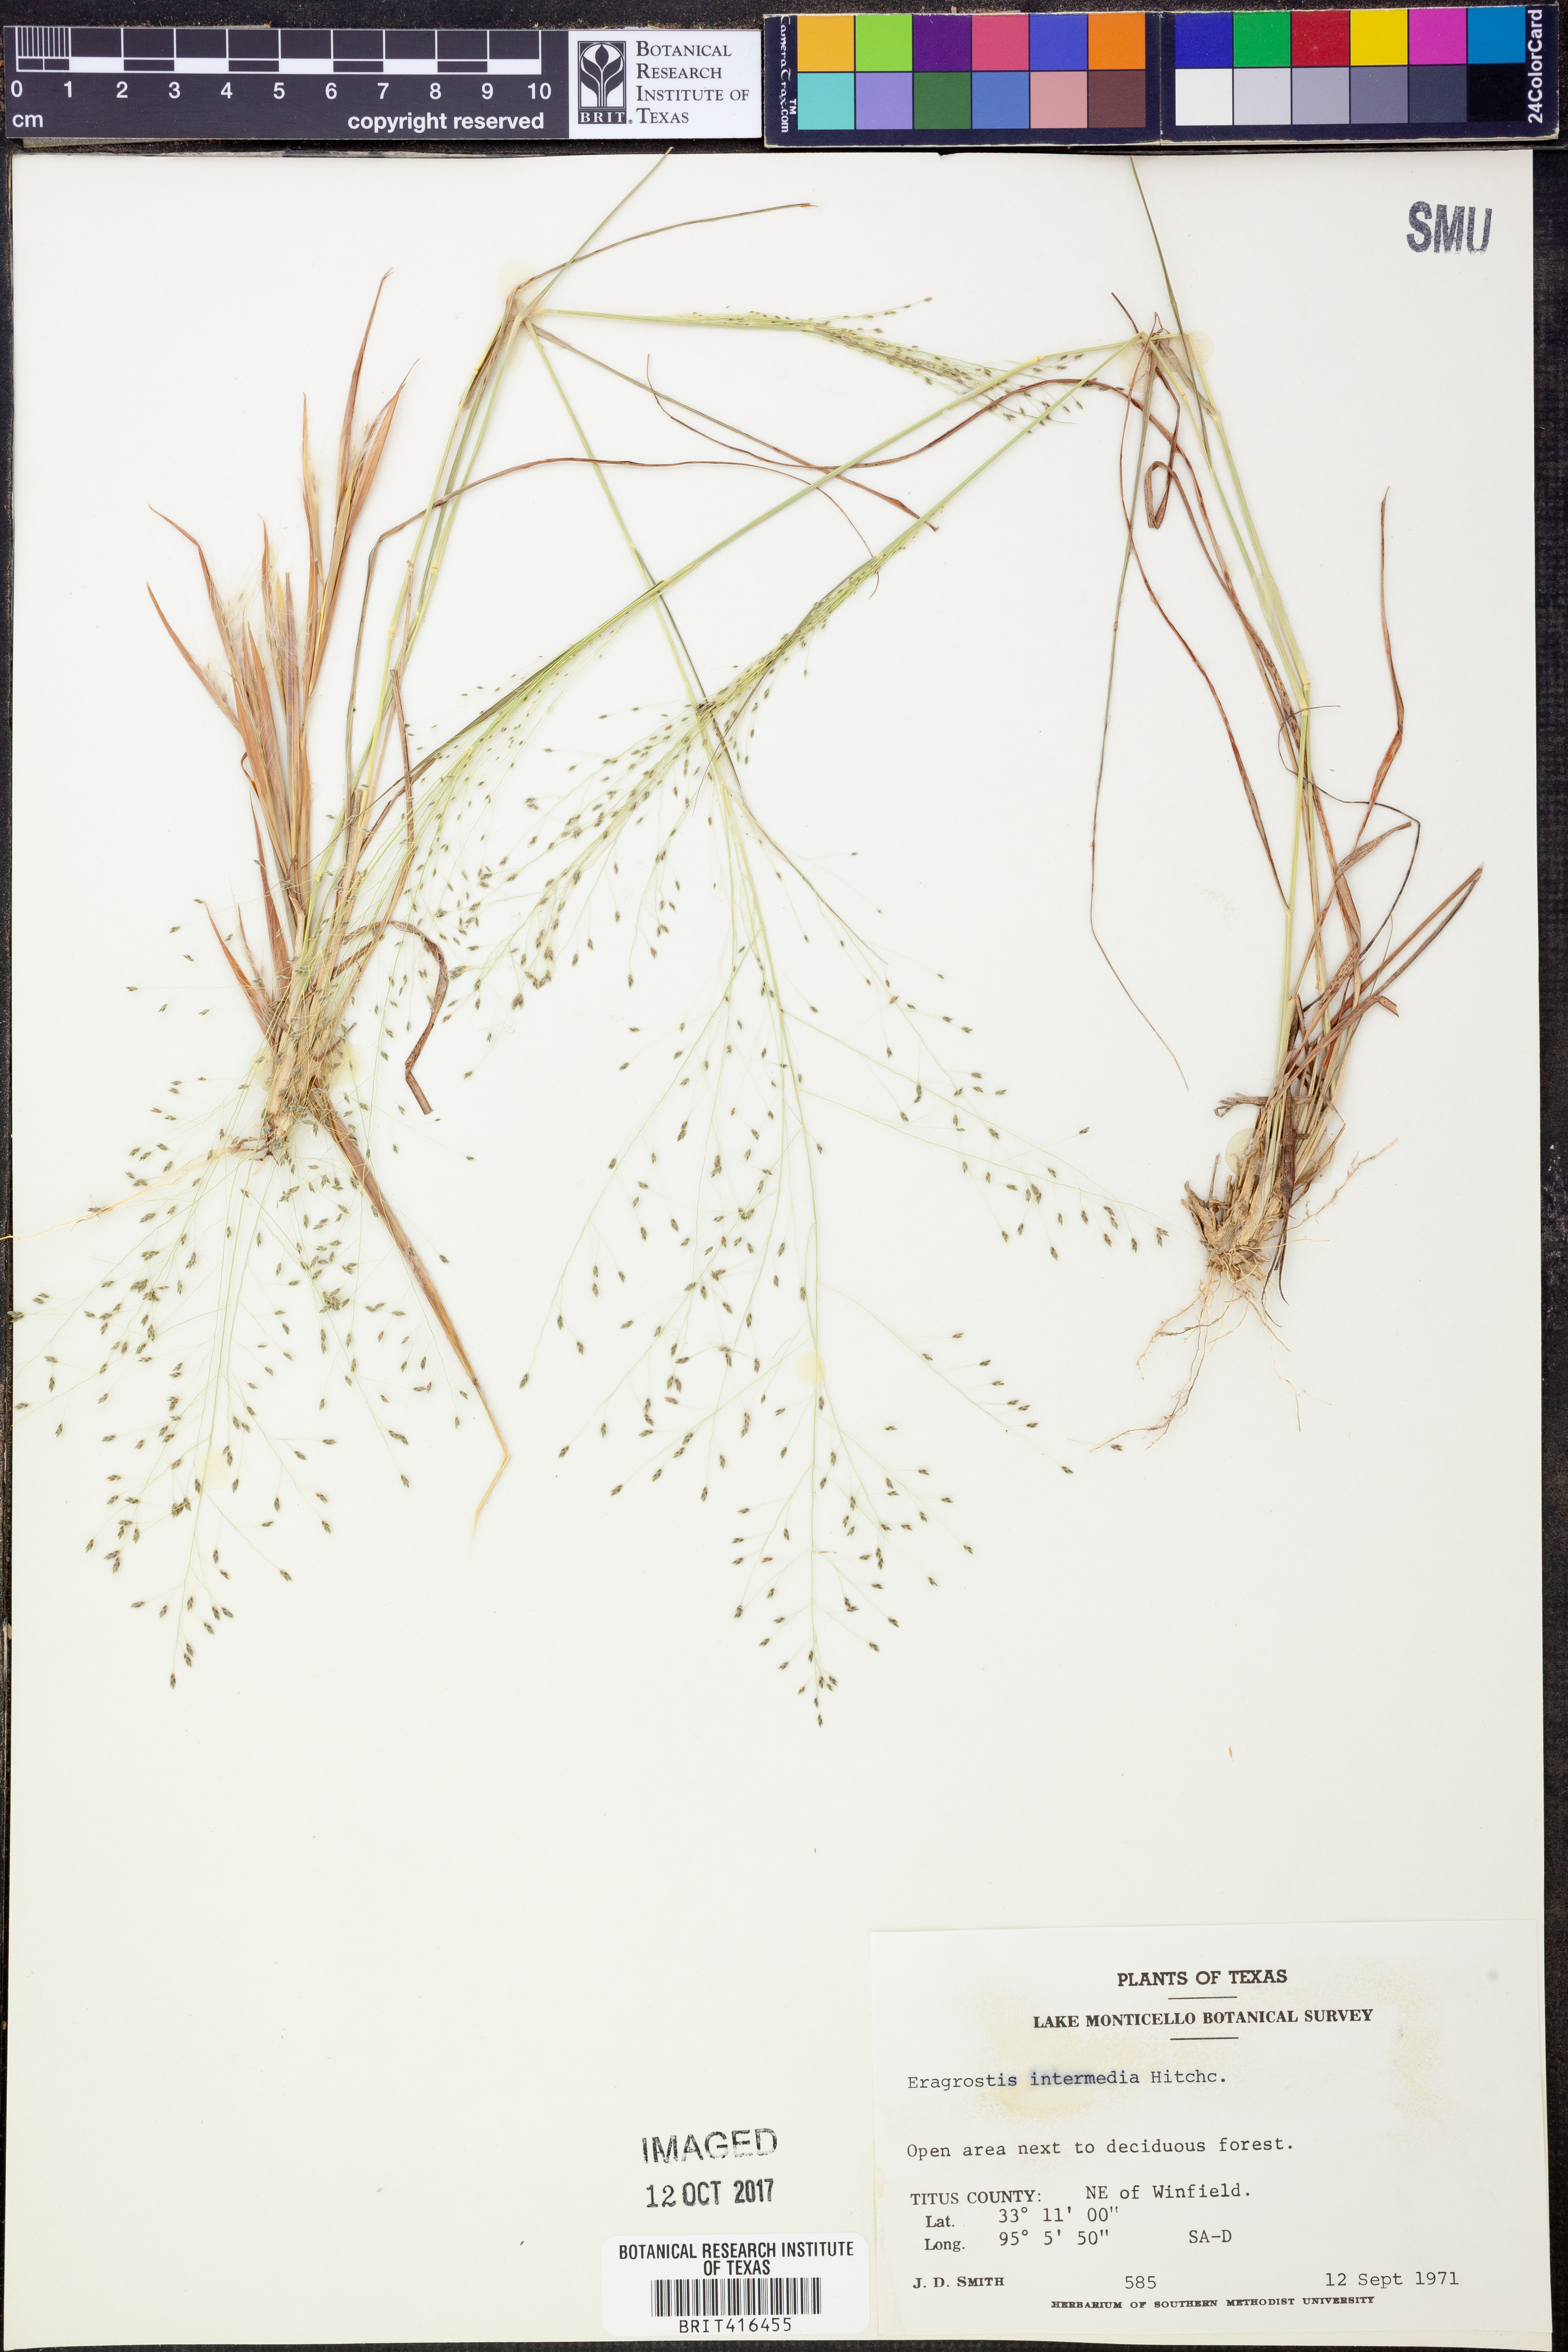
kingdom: Plantae
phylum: Tracheophyta
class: Liliopsida
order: Poales
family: Poaceae
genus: Eragrostis
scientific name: Eragrostis intermedia
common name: Plains love grass
